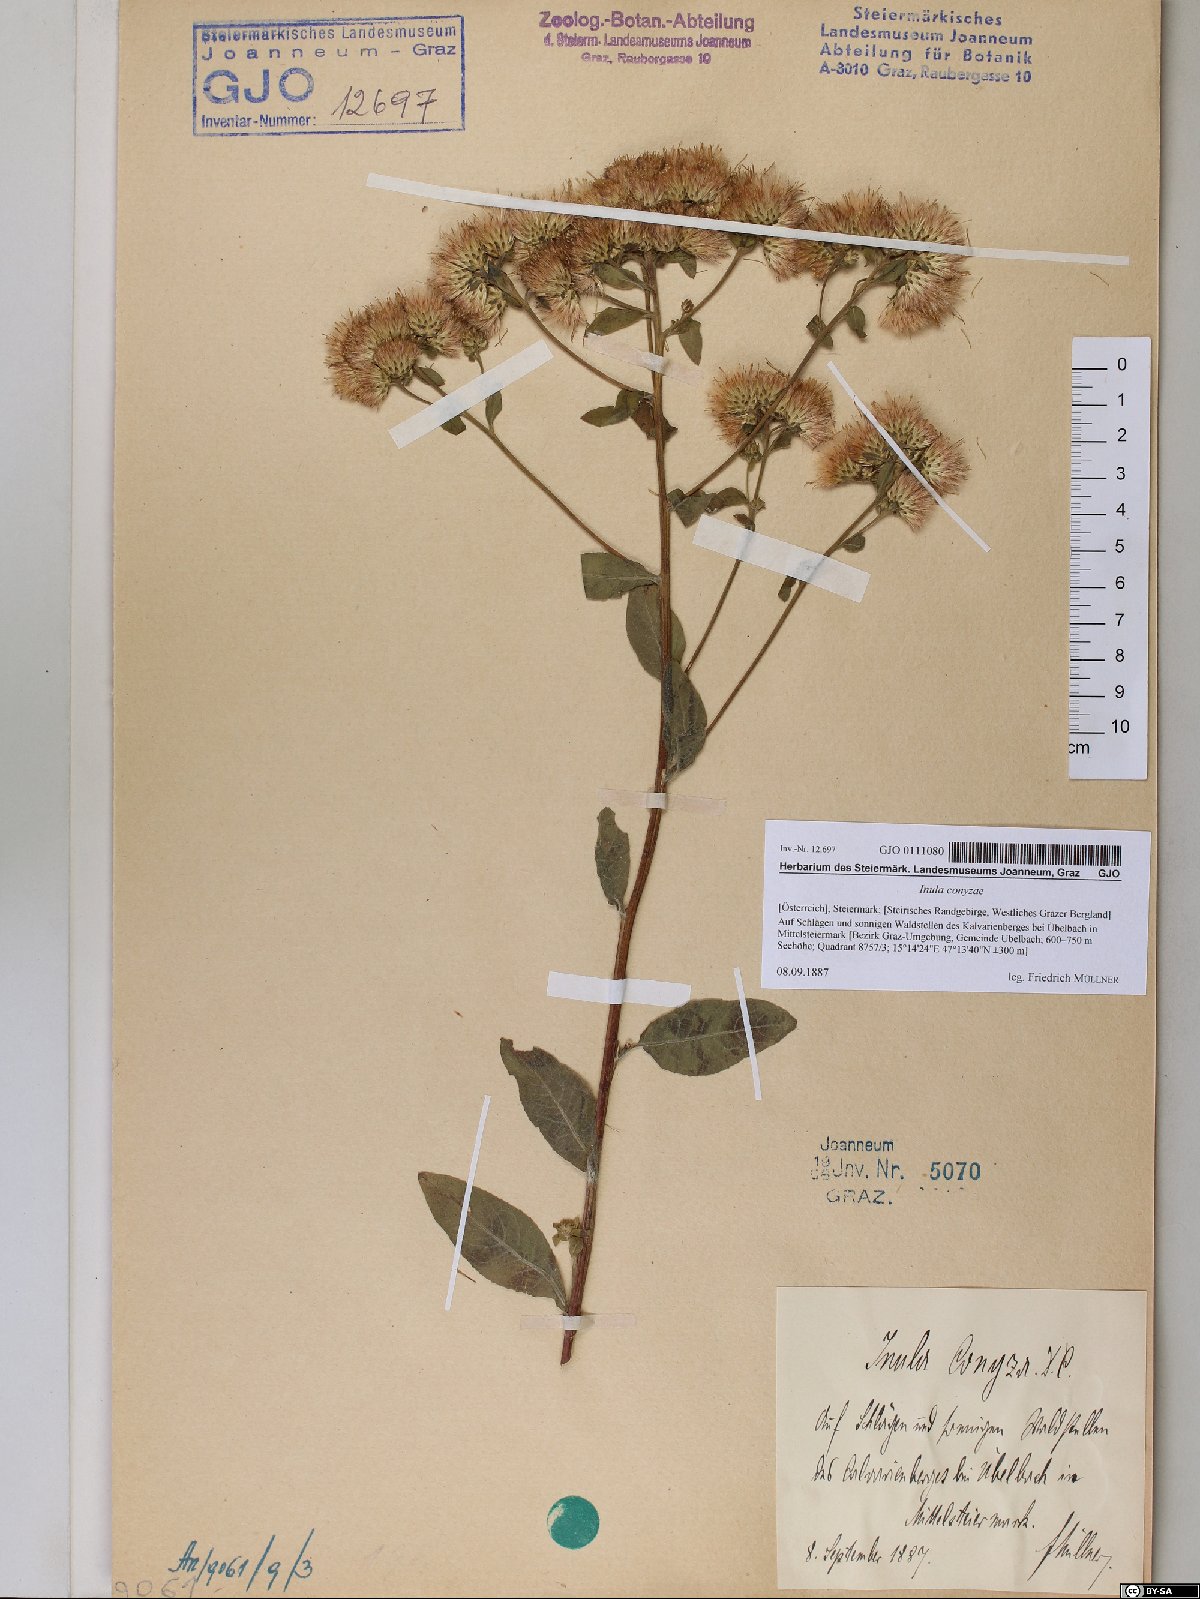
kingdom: Plantae
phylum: Tracheophyta
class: Magnoliopsida
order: Asterales
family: Asteraceae
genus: Pentanema
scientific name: Pentanema squarrosum
